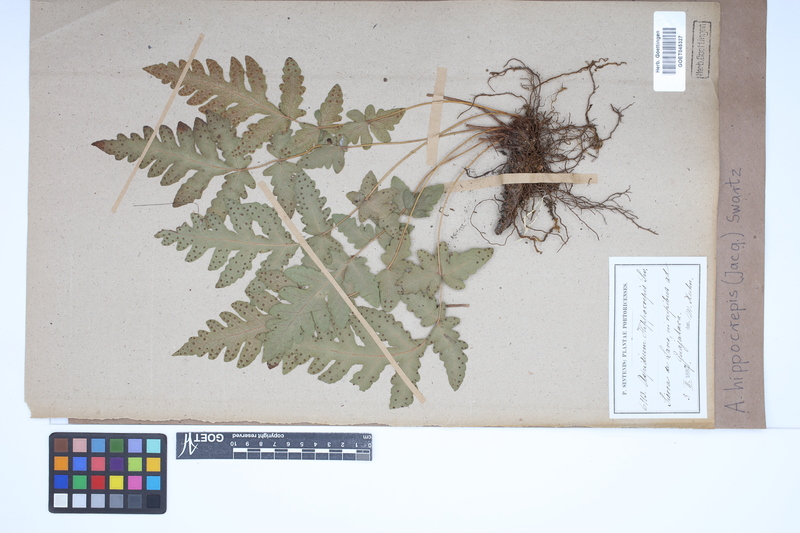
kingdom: Plantae
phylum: Tracheophyta
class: Polypodiopsida
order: Polypodiales
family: Tectariaceae
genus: Tectaria
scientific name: Tectaria cicutaria
